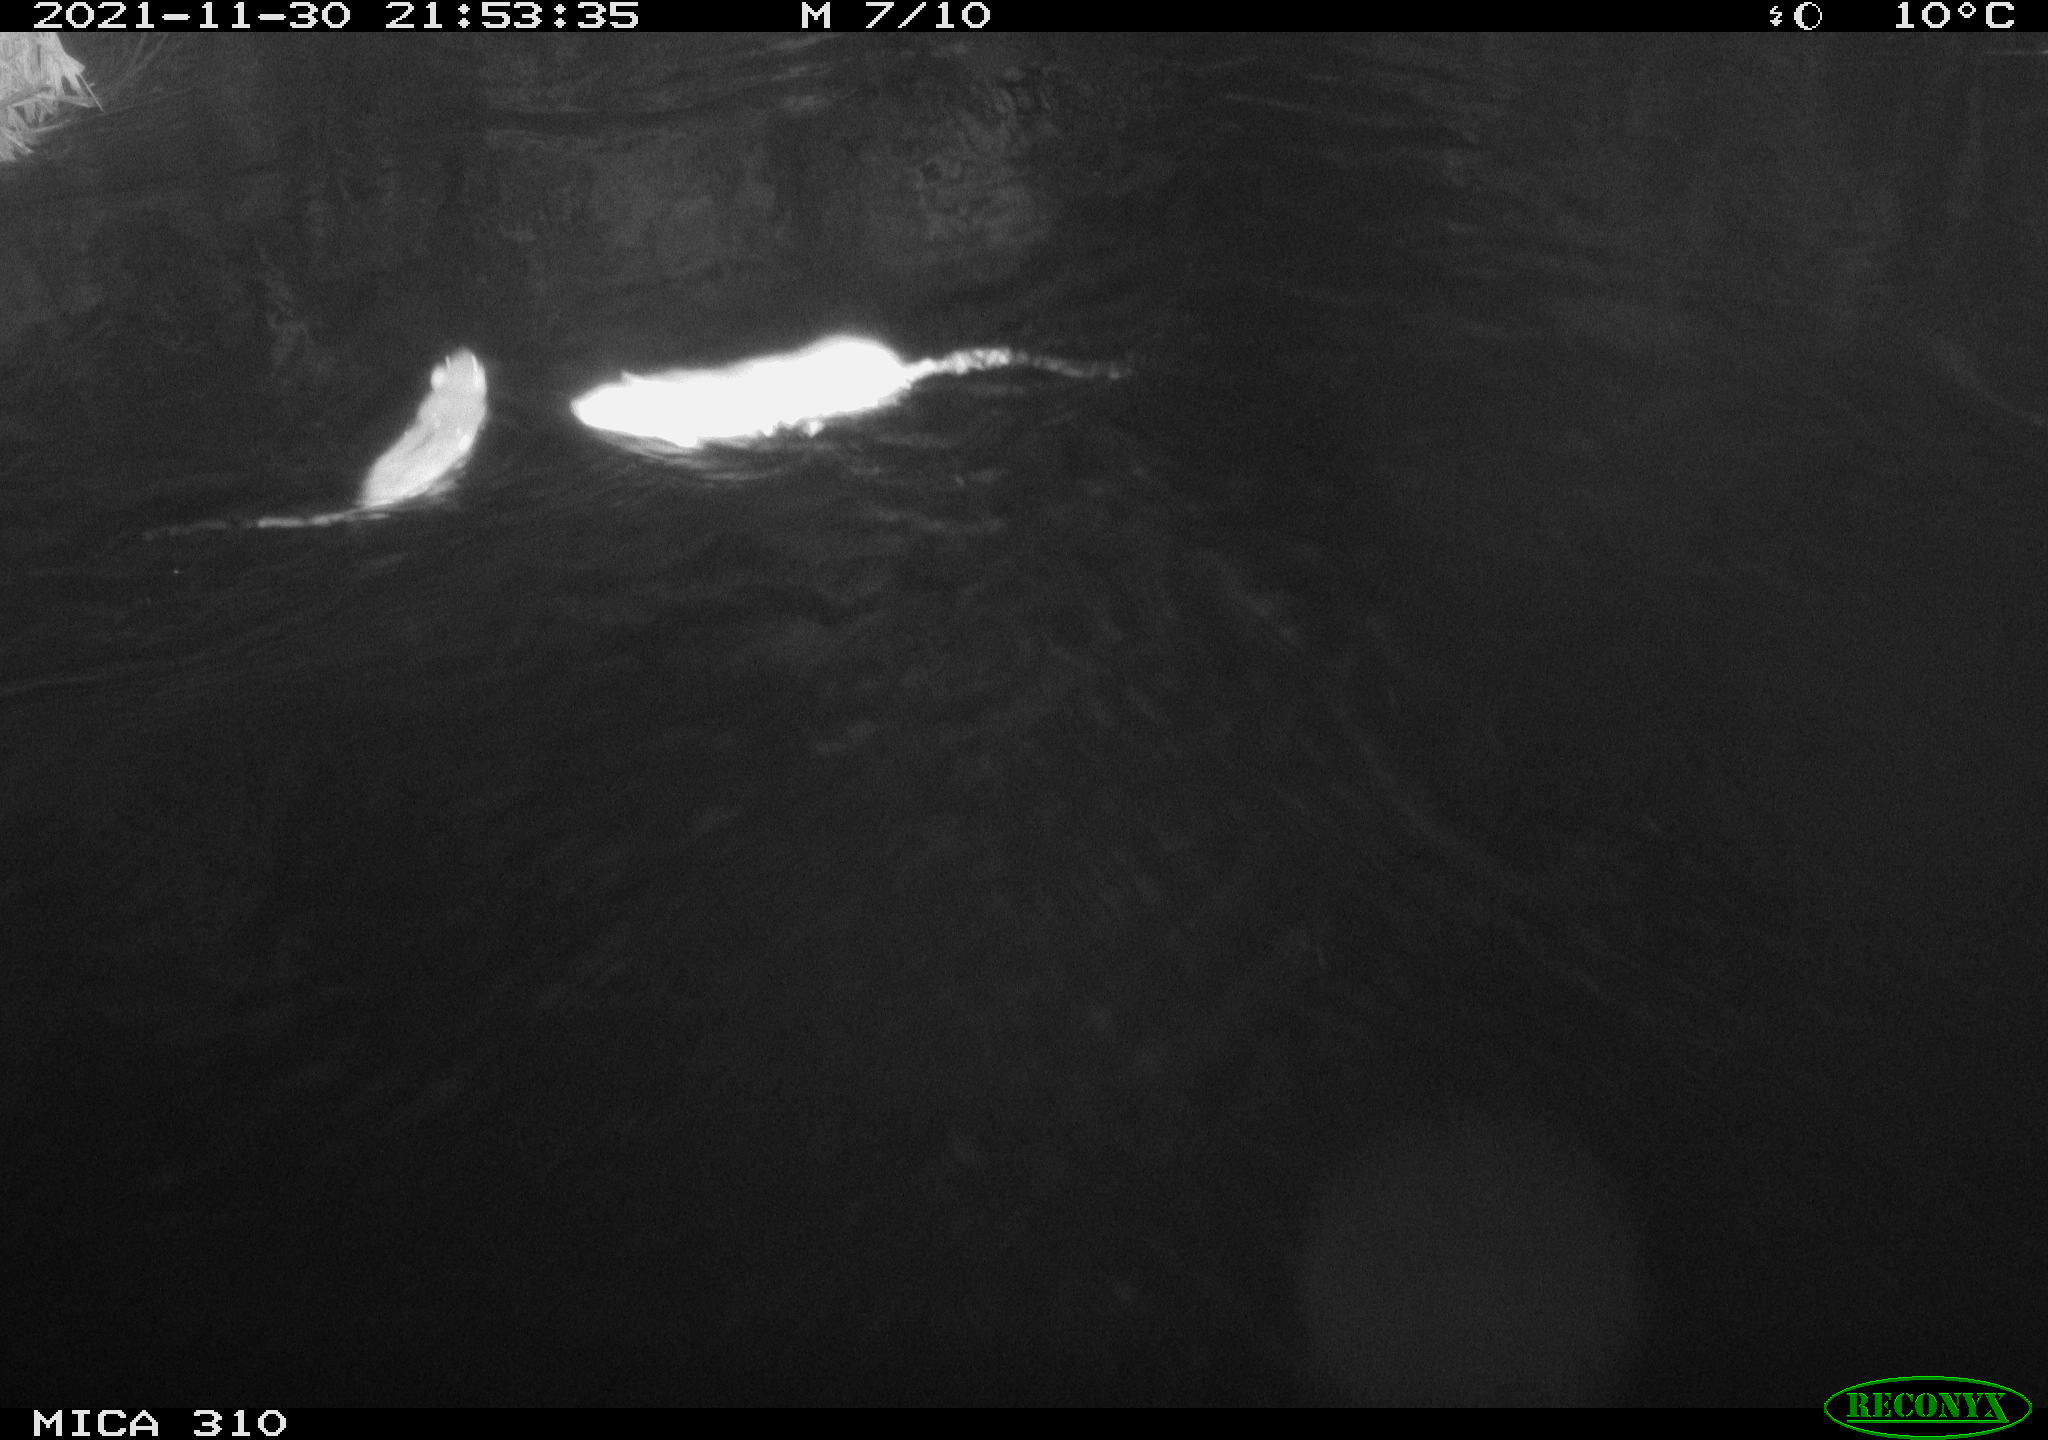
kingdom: Animalia
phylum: Chordata
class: Mammalia
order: Rodentia
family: Muridae
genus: Rattus
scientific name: Rattus norvegicus
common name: Brown rat
